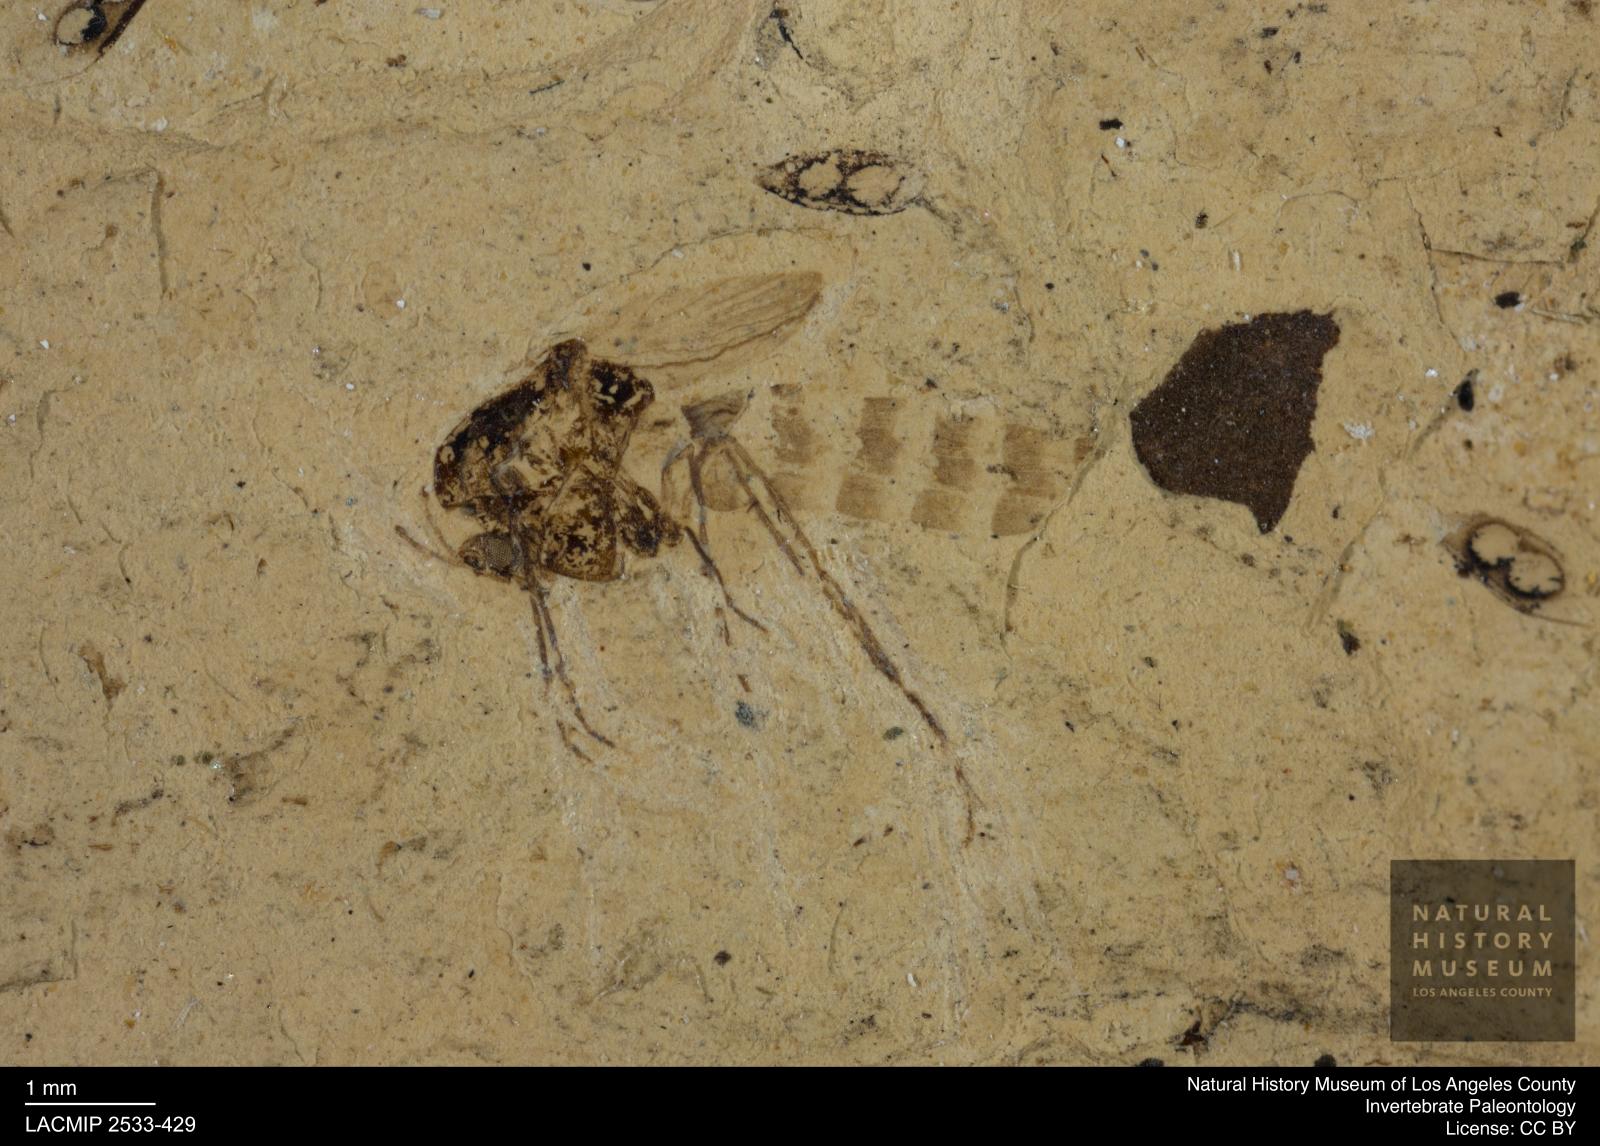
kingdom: Animalia
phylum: Arthropoda
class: Insecta
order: Diptera
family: Chironomidae
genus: Tanypus
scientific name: Tanypus thienemanni
